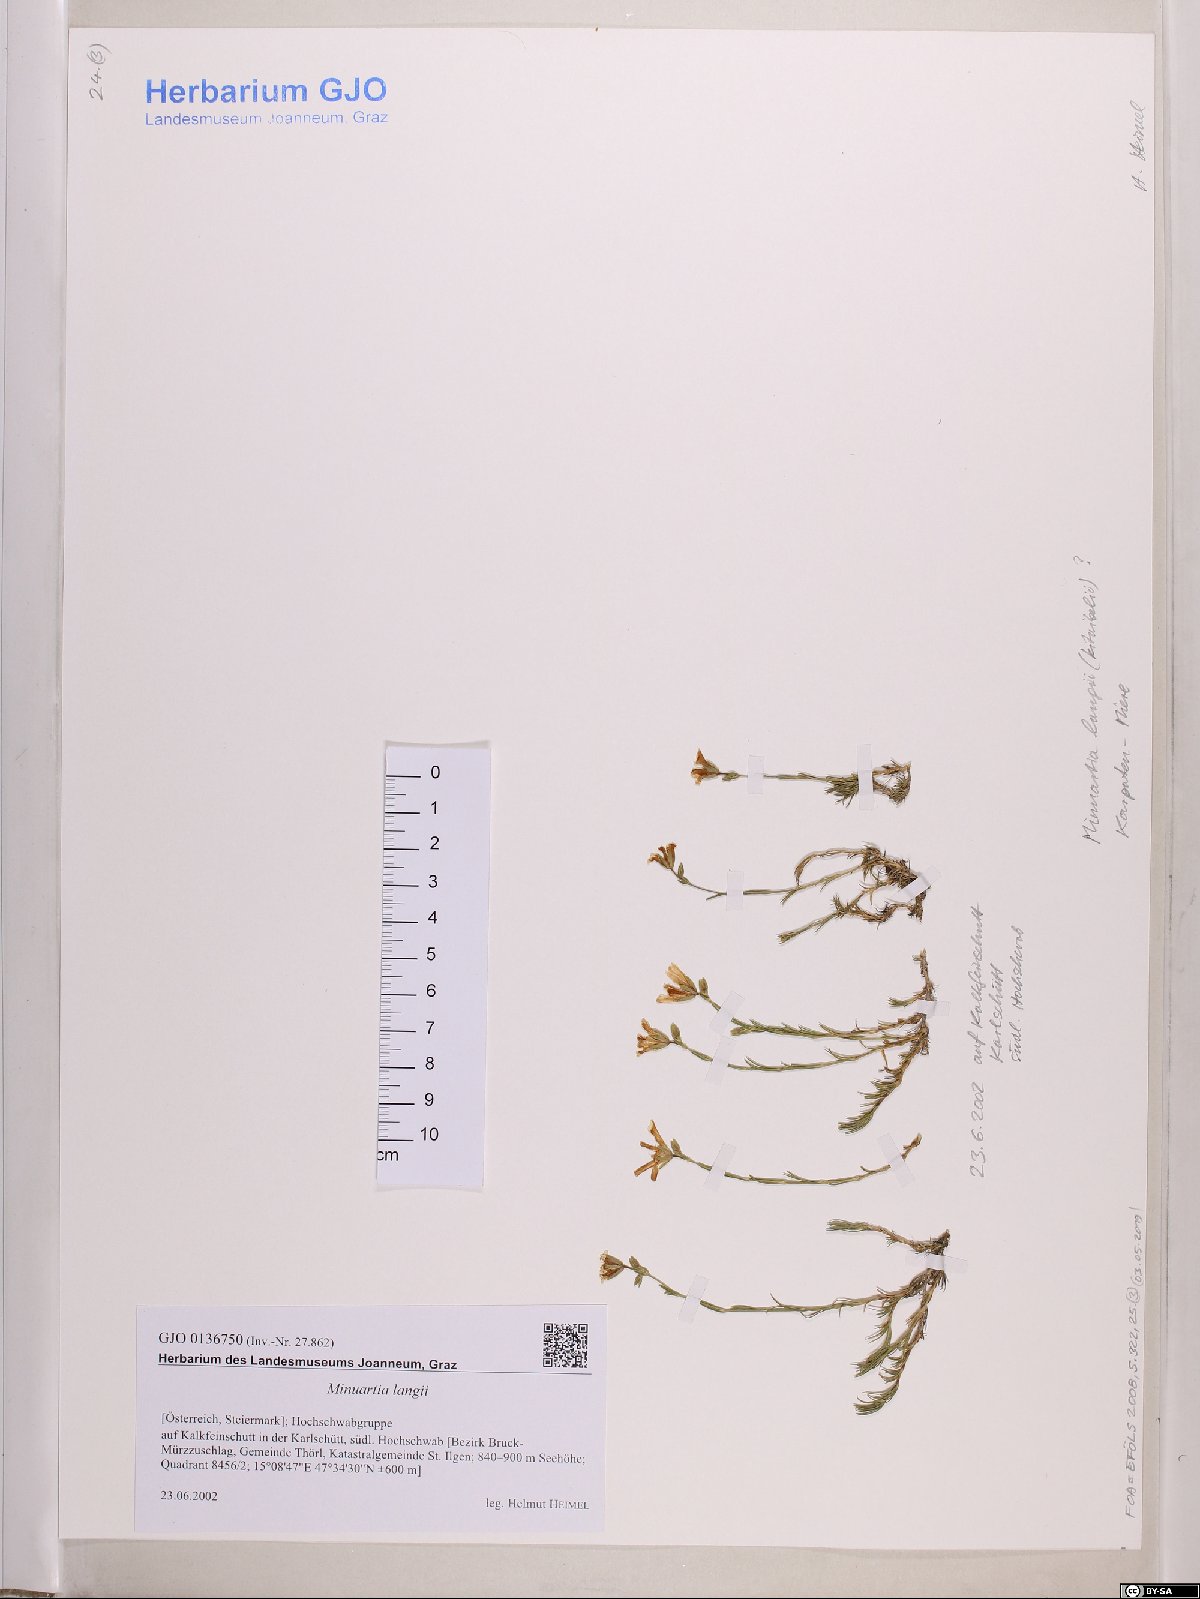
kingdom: Plantae
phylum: Tracheophyta
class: Magnoliopsida
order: Caryophyllales
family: Caryophyllaceae
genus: Cherleria
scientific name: Cherleria langii
